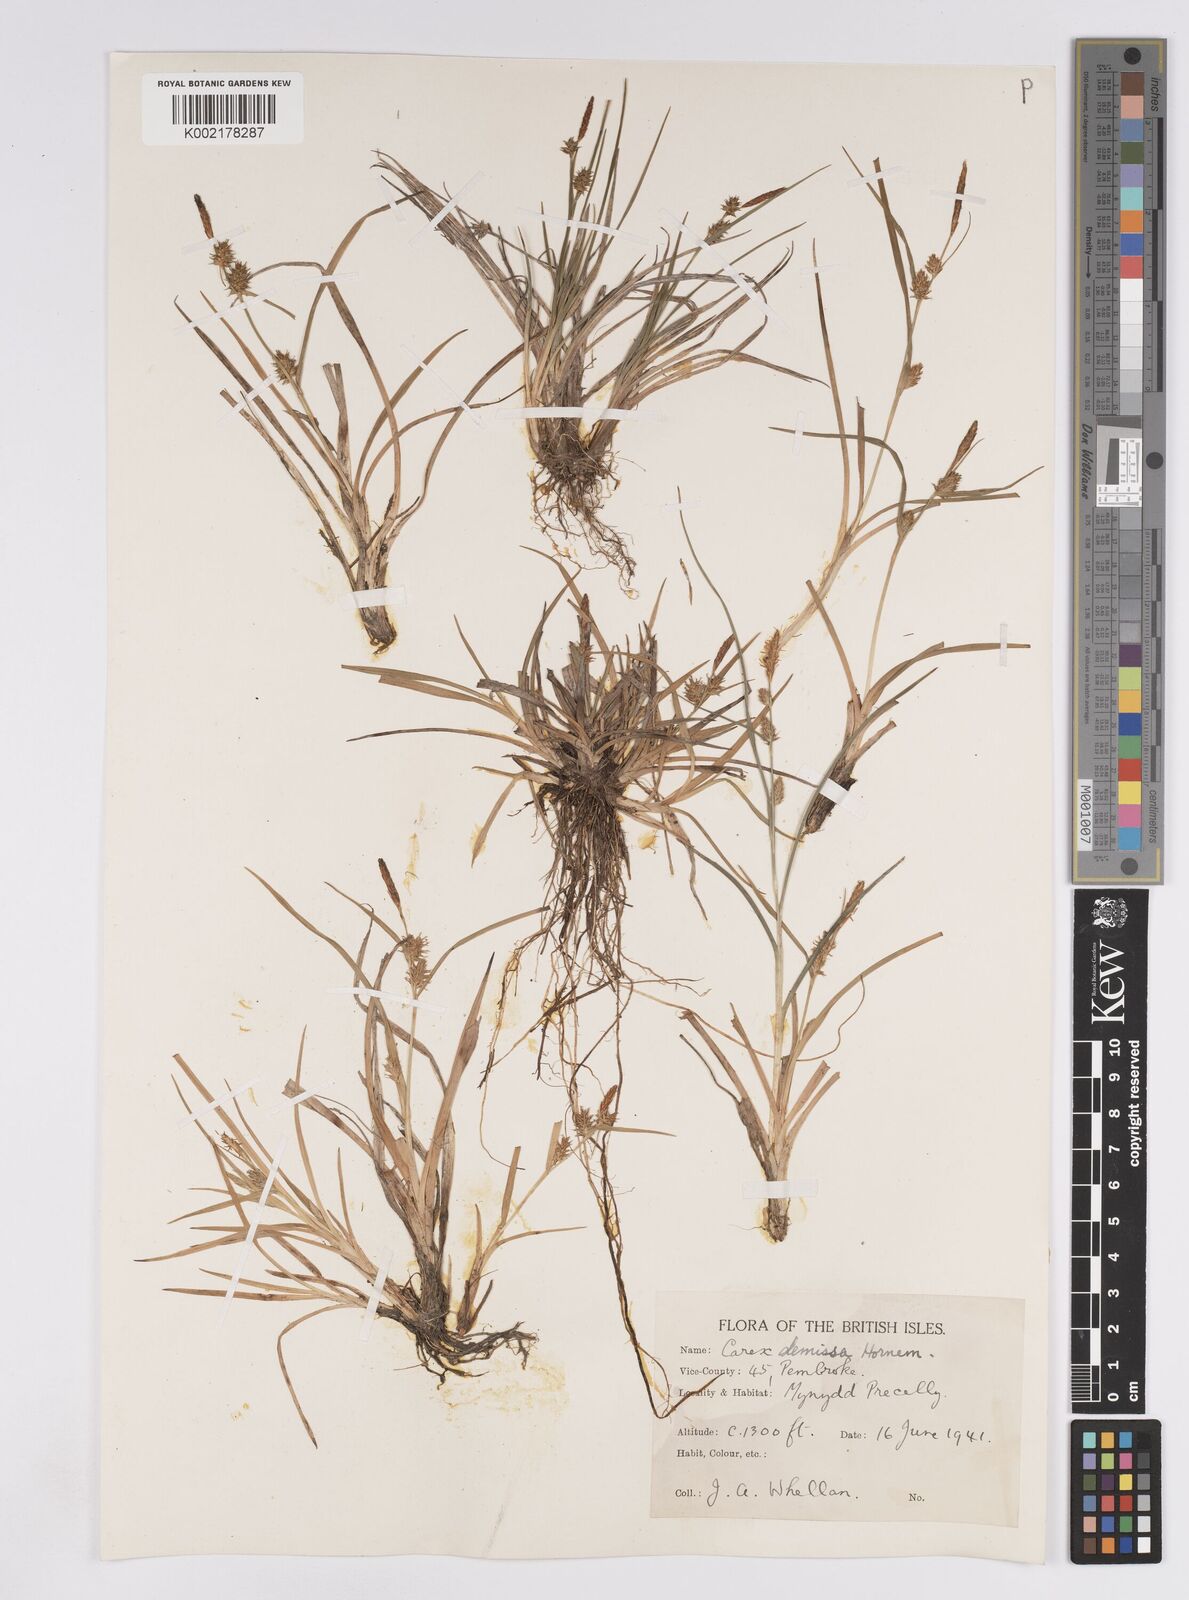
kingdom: Plantae
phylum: Tracheophyta
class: Liliopsida
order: Poales
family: Cyperaceae
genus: Carex
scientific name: Carex demissa
